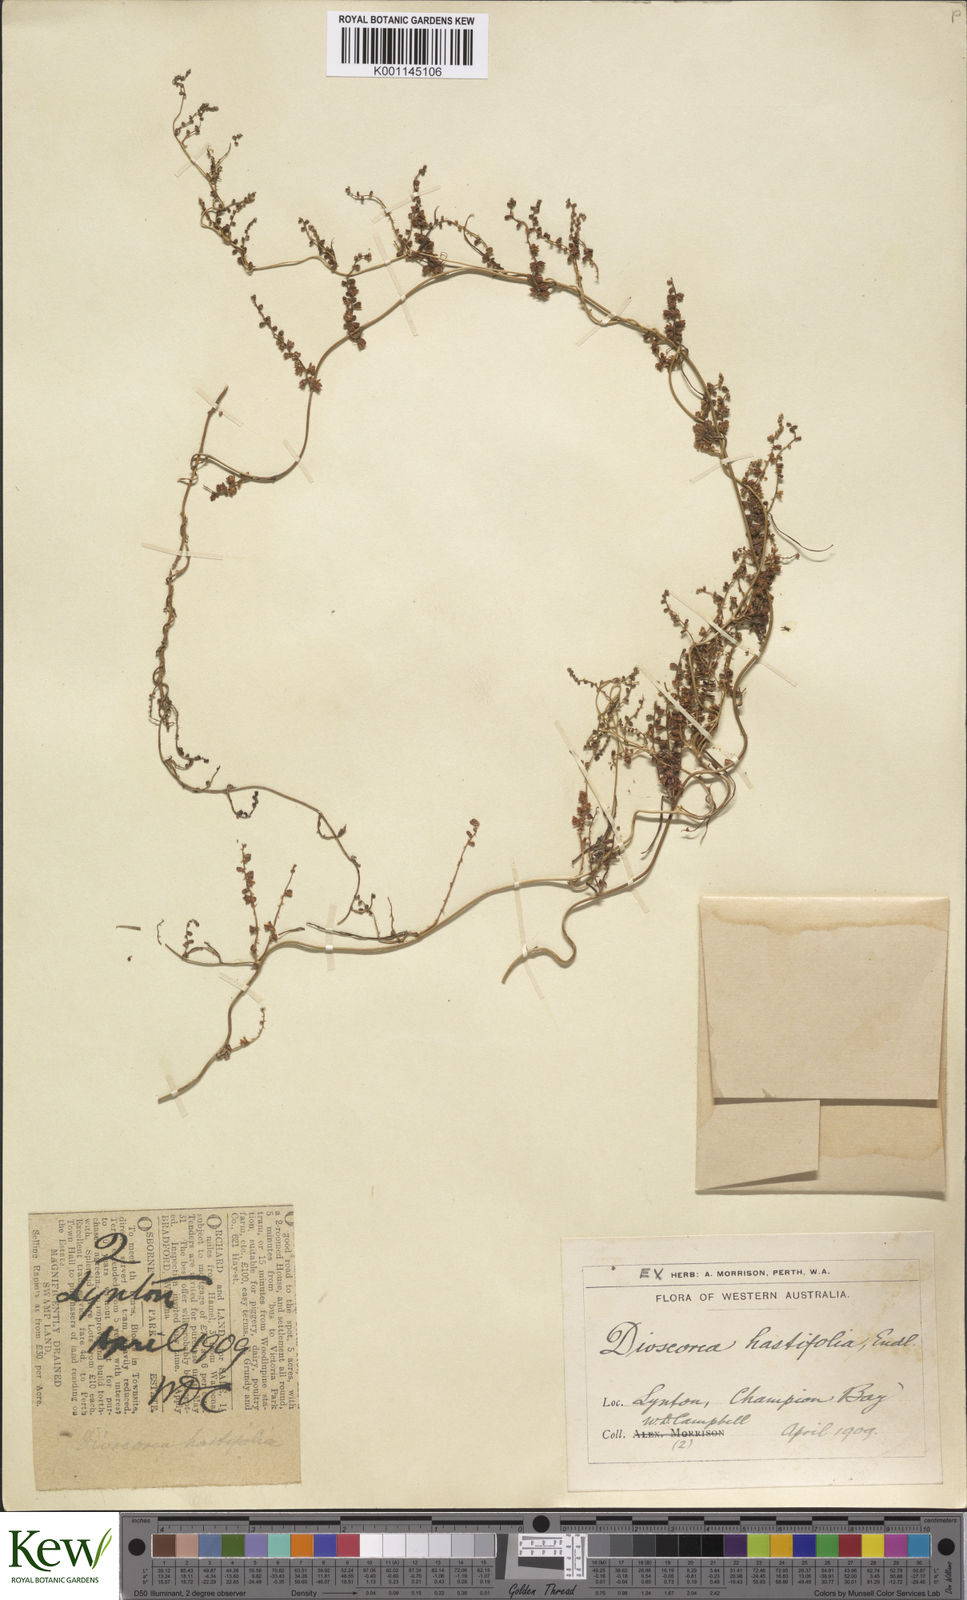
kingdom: Plantae
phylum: Tracheophyta
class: Liliopsida
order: Dioscoreales
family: Dioscoreaceae
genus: Dioscorea
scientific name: Dioscorea hastifolia
